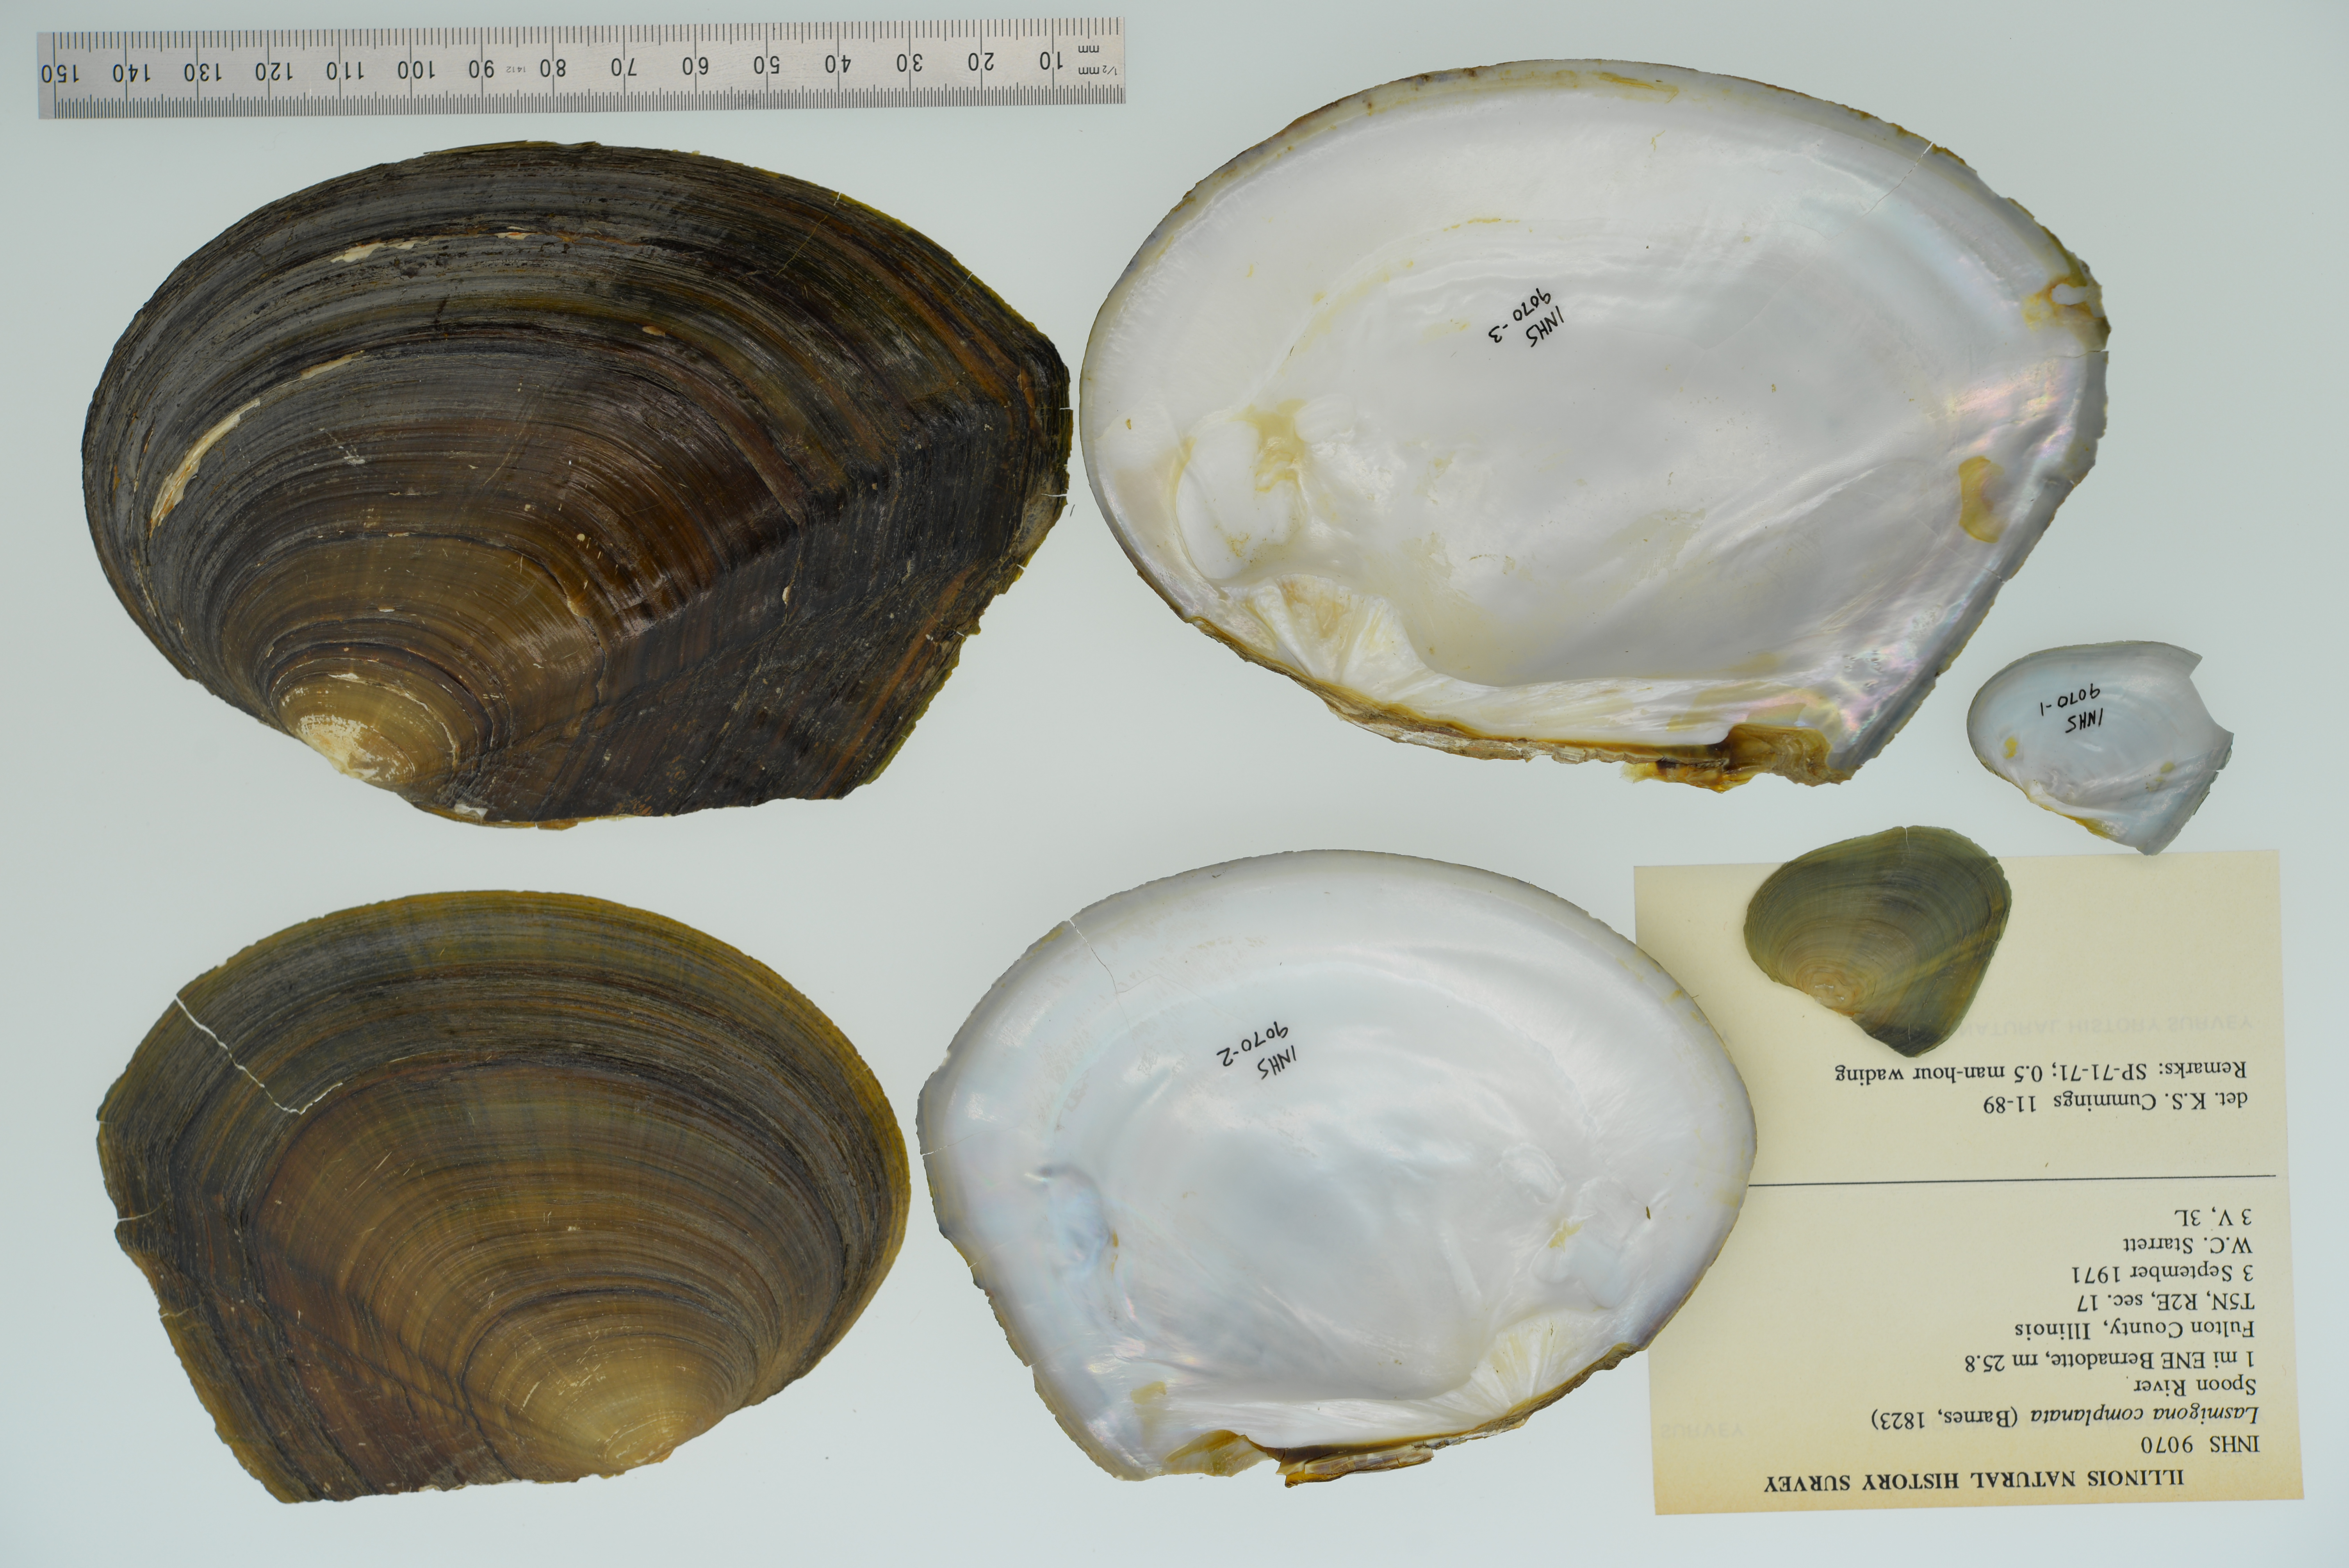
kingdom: Animalia
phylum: Mollusca
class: Bivalvia
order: Unionida
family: Unionidae
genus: Lasmigona
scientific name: Lasmigona complanata
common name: White heelsplitter
